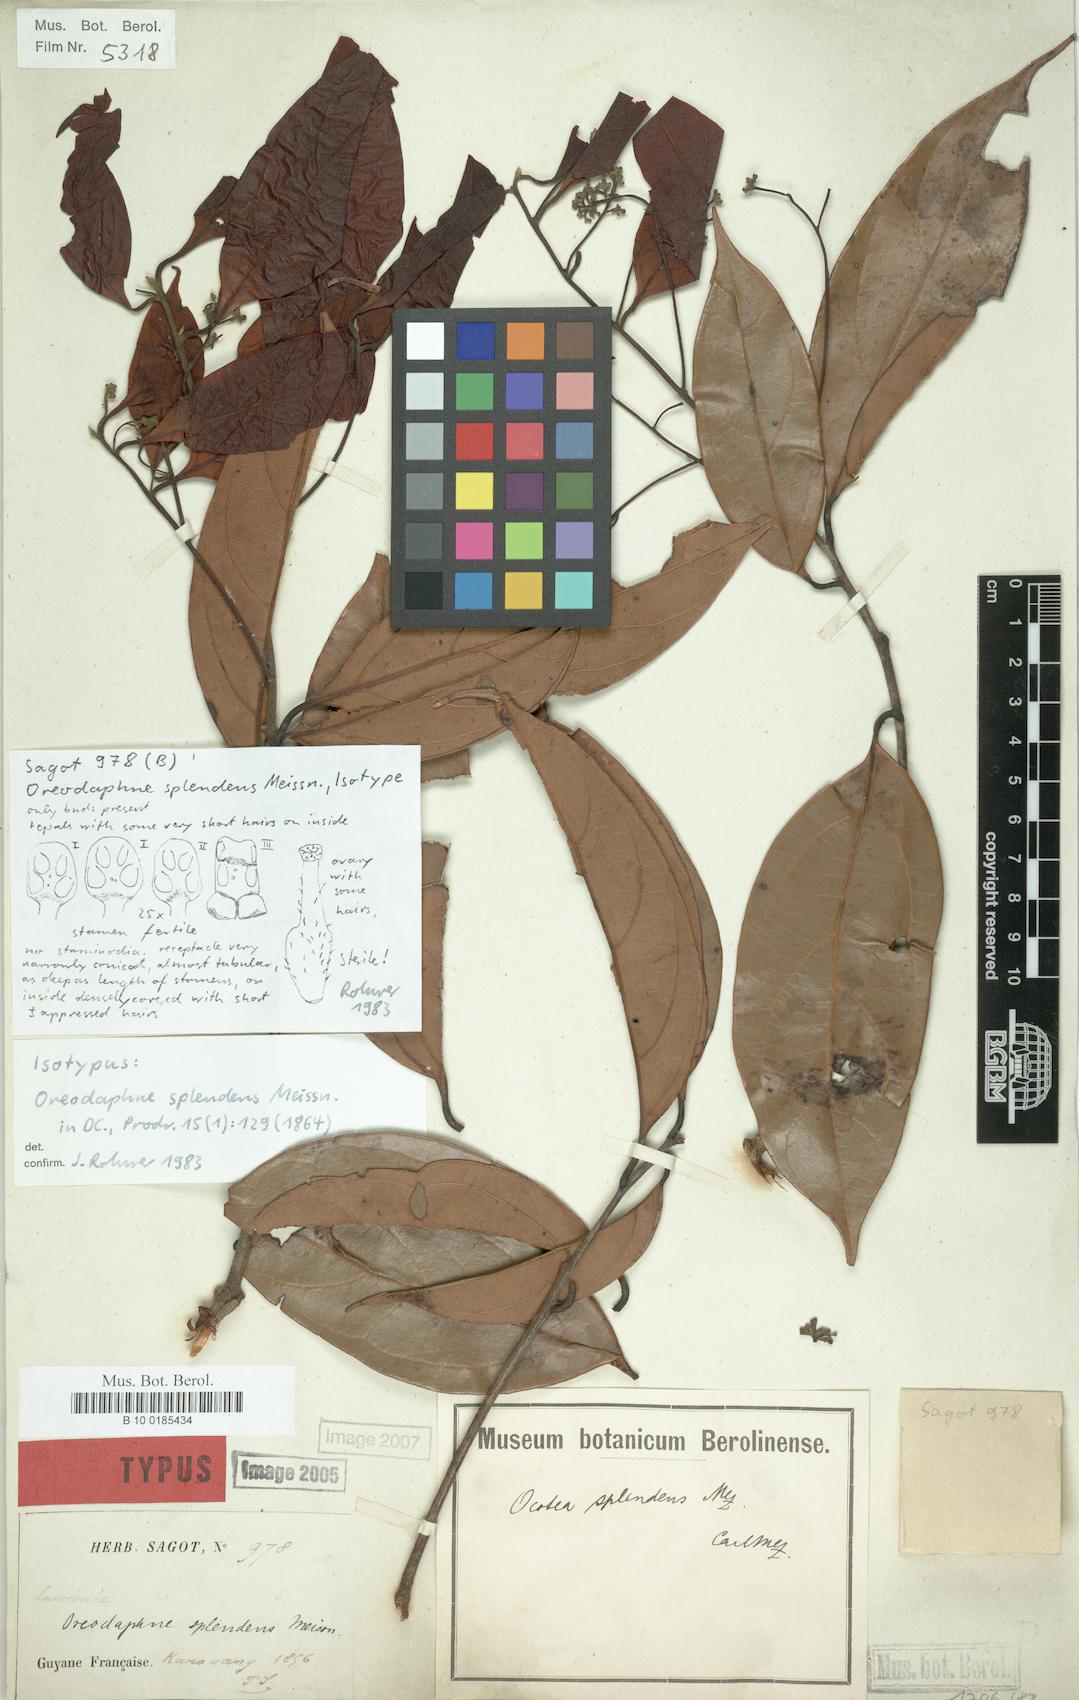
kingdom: Plantae
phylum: Tracheophyta
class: Magnoliopsida
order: Laurales
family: Lauraceae
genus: Ocotea
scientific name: Ocotea splendens
